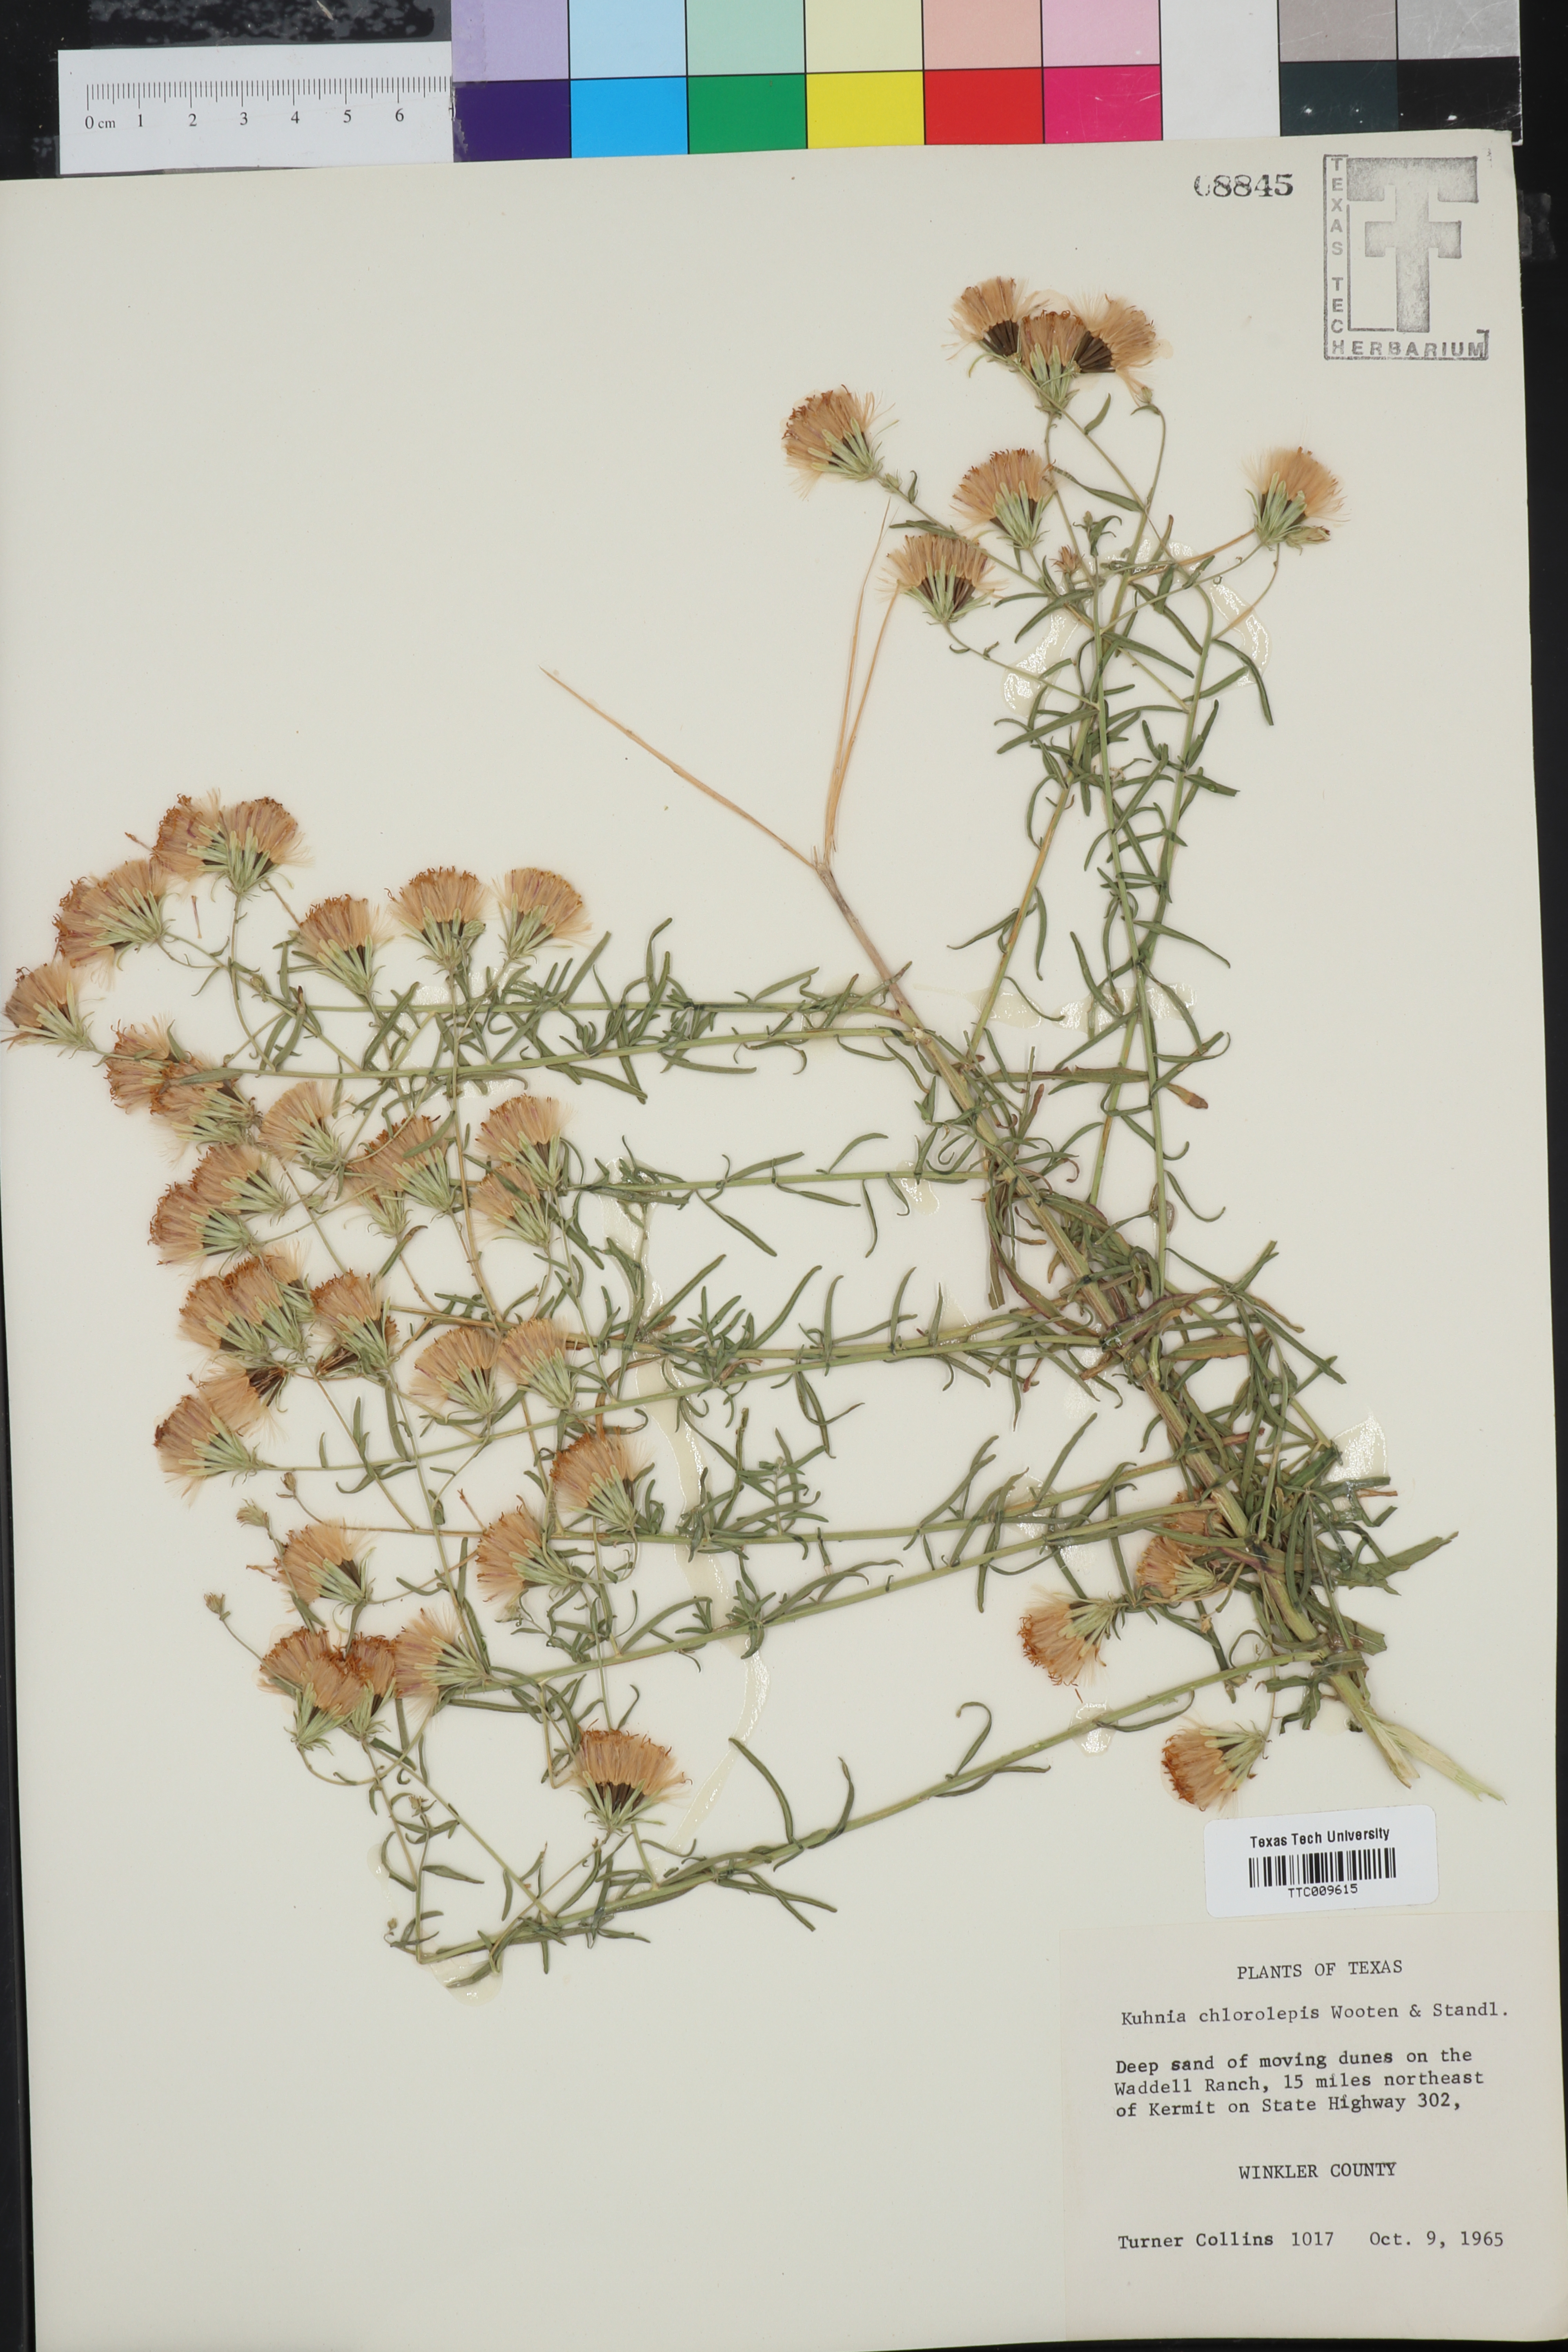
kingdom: Plantae
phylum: Tracheophyta
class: Magnoliopsida
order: Asterales
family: Asteraceae
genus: Brickellia
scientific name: Brickellia leptophylla
